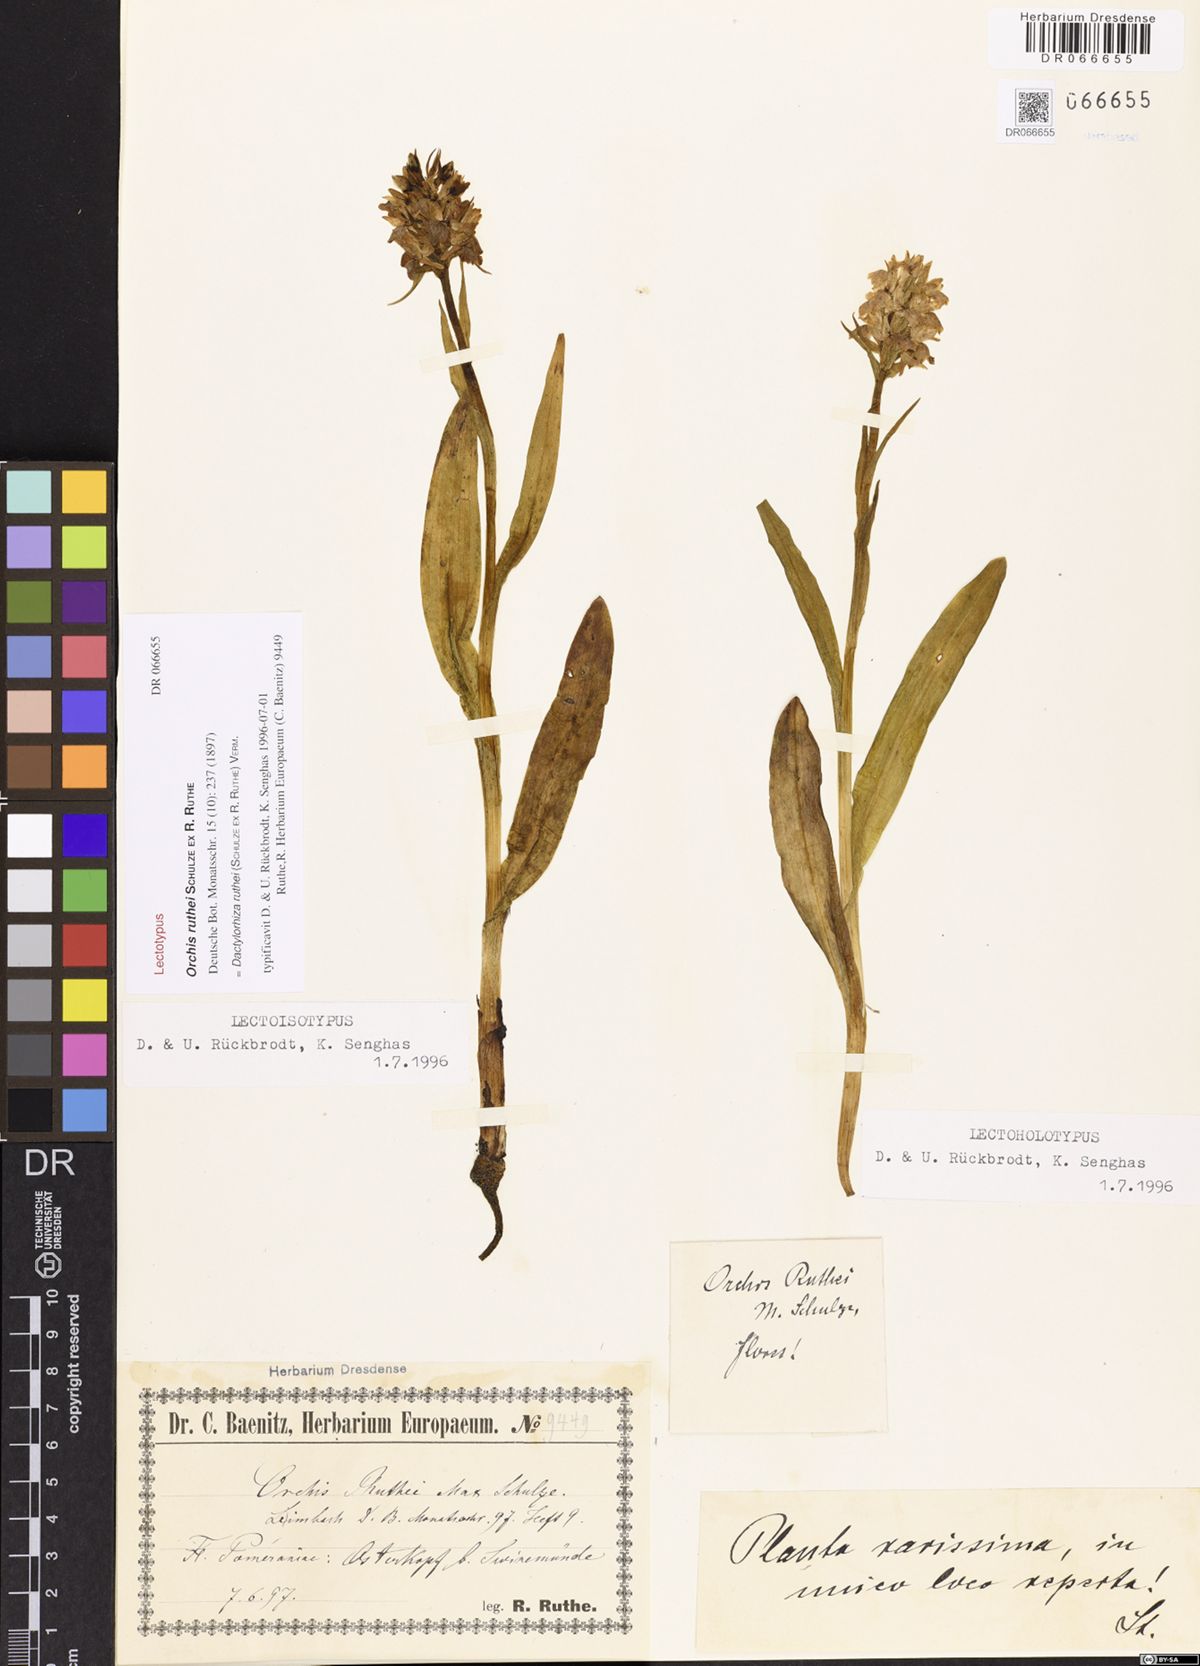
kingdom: Plantae
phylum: Tracheophyta
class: Liliopsida
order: Asparagales
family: Orchidaceae
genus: Dactylorhiza
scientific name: Dactylorhiza kerneriorum
